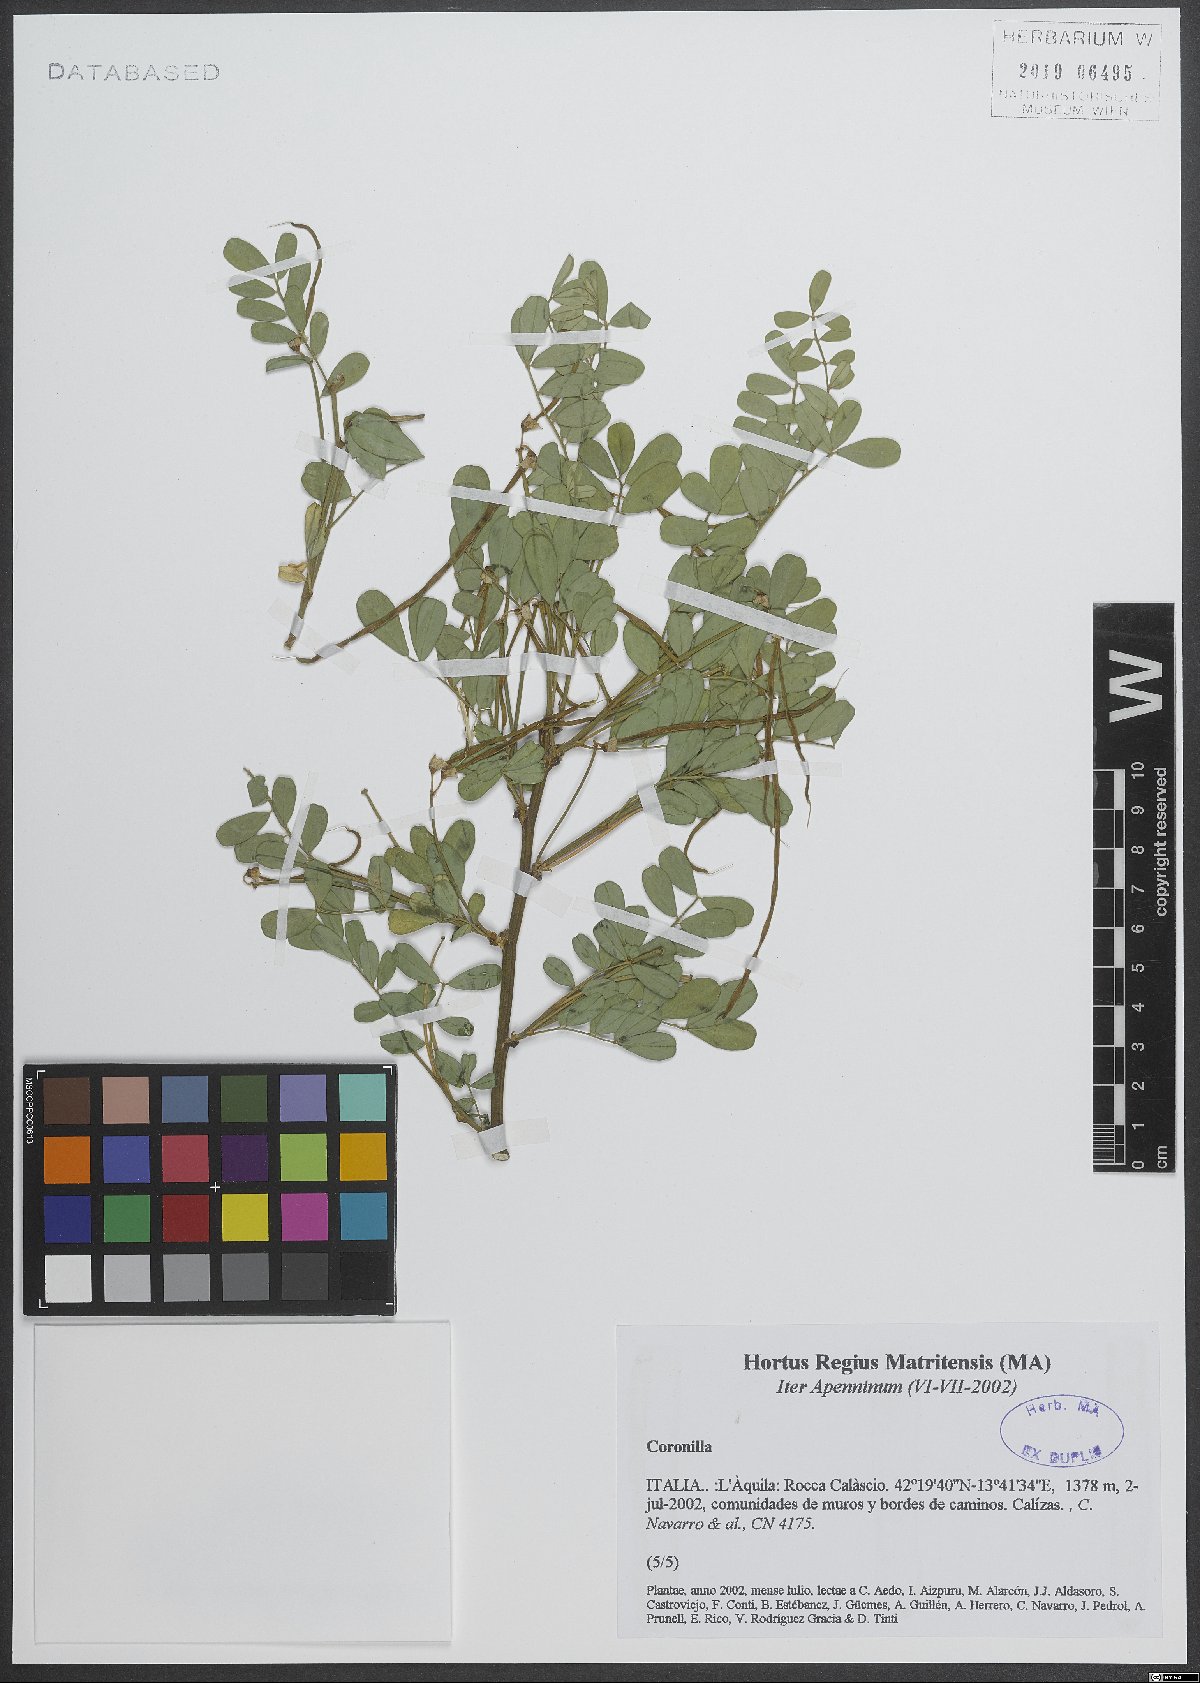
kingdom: Plantae
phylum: Tracheophyta
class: Magnoliopsida
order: Fabales
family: Fabaceae
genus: Coronilla
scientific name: Coronilla
